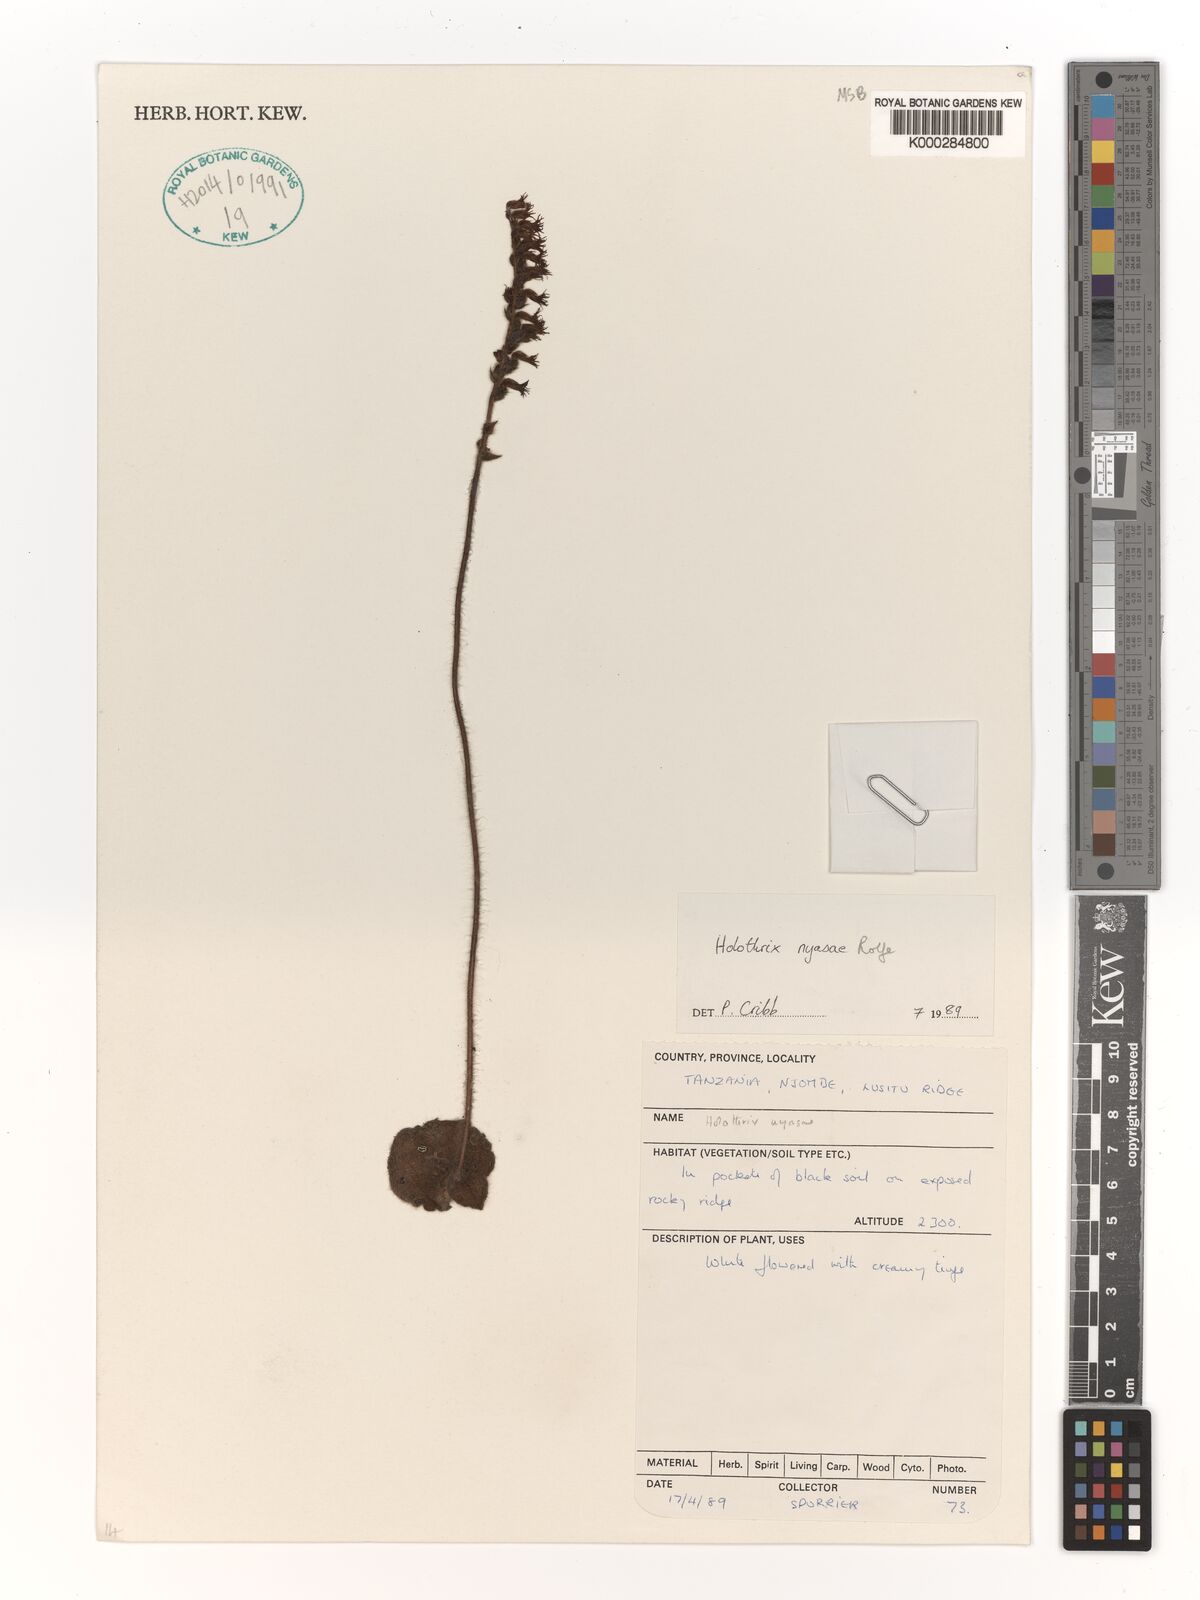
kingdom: Plantae
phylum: Tracheophyta
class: Liliopsida
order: Asparagales
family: Orchidaceae
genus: Holothrix
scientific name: Holothrix nyasae
